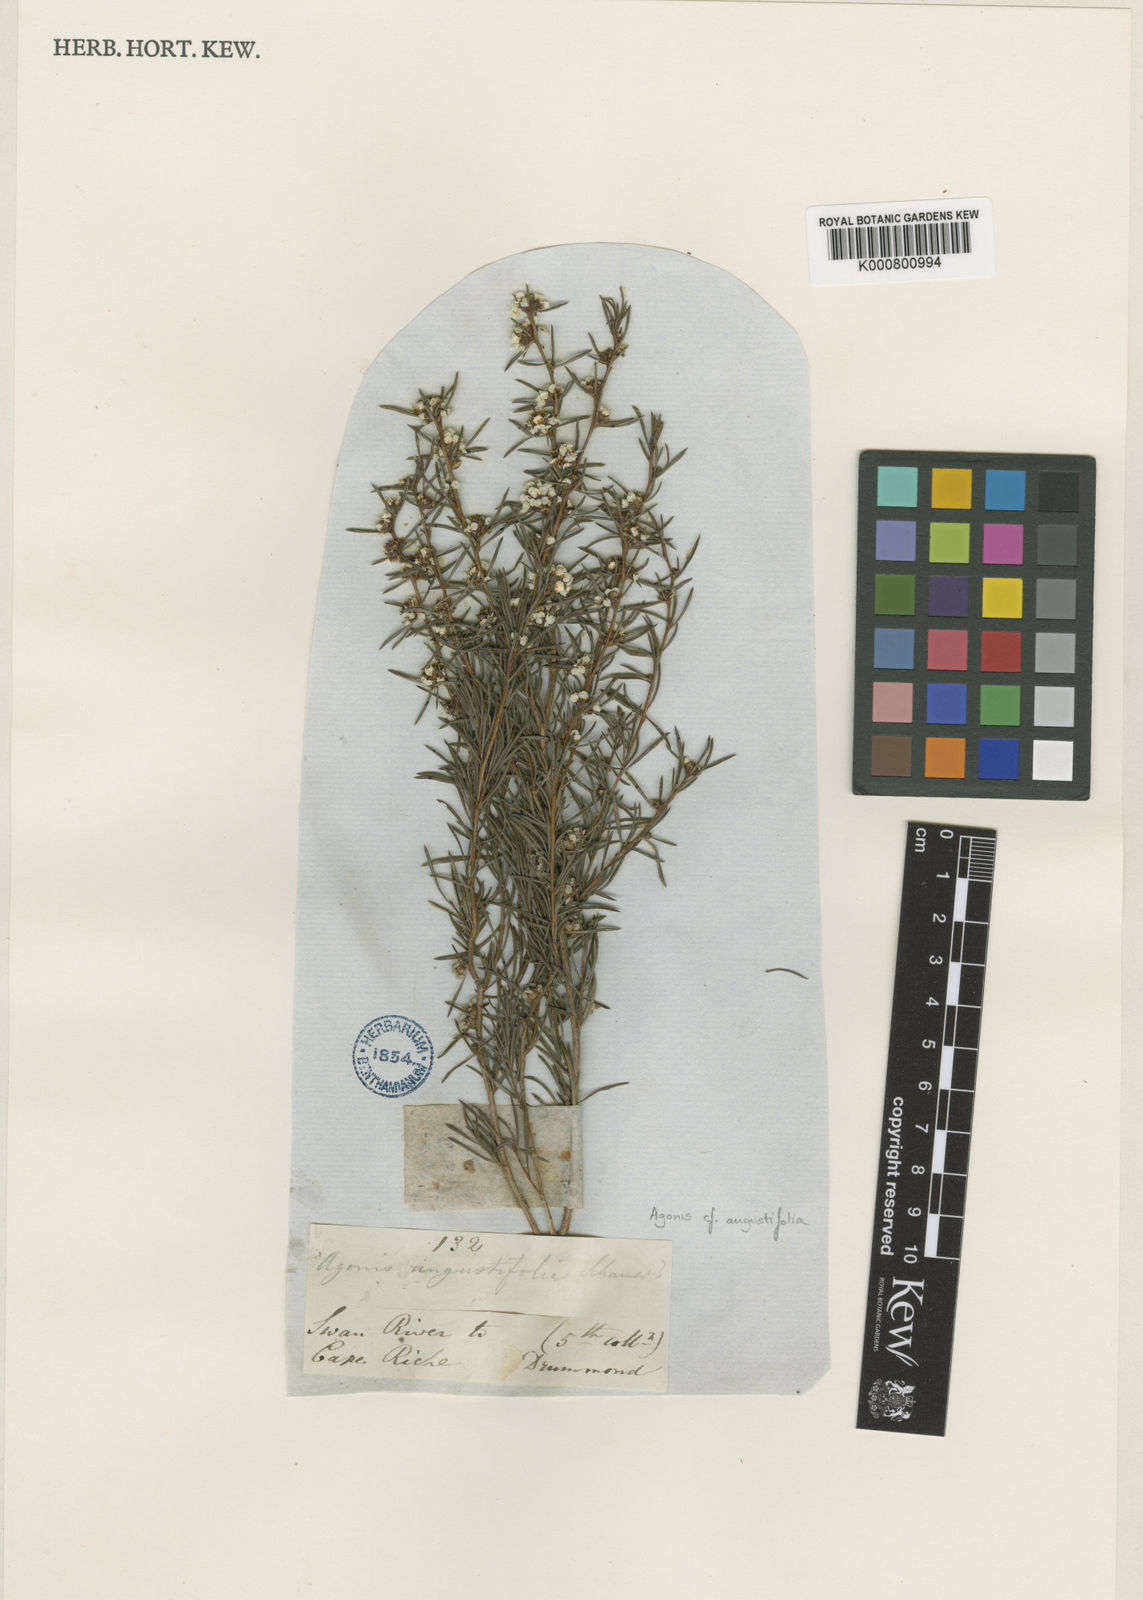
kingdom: Plantae
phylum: Tracheophyta
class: Magnoliopsida
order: Myrtales
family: Myrtaceae
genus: Agonis
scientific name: Agonis
